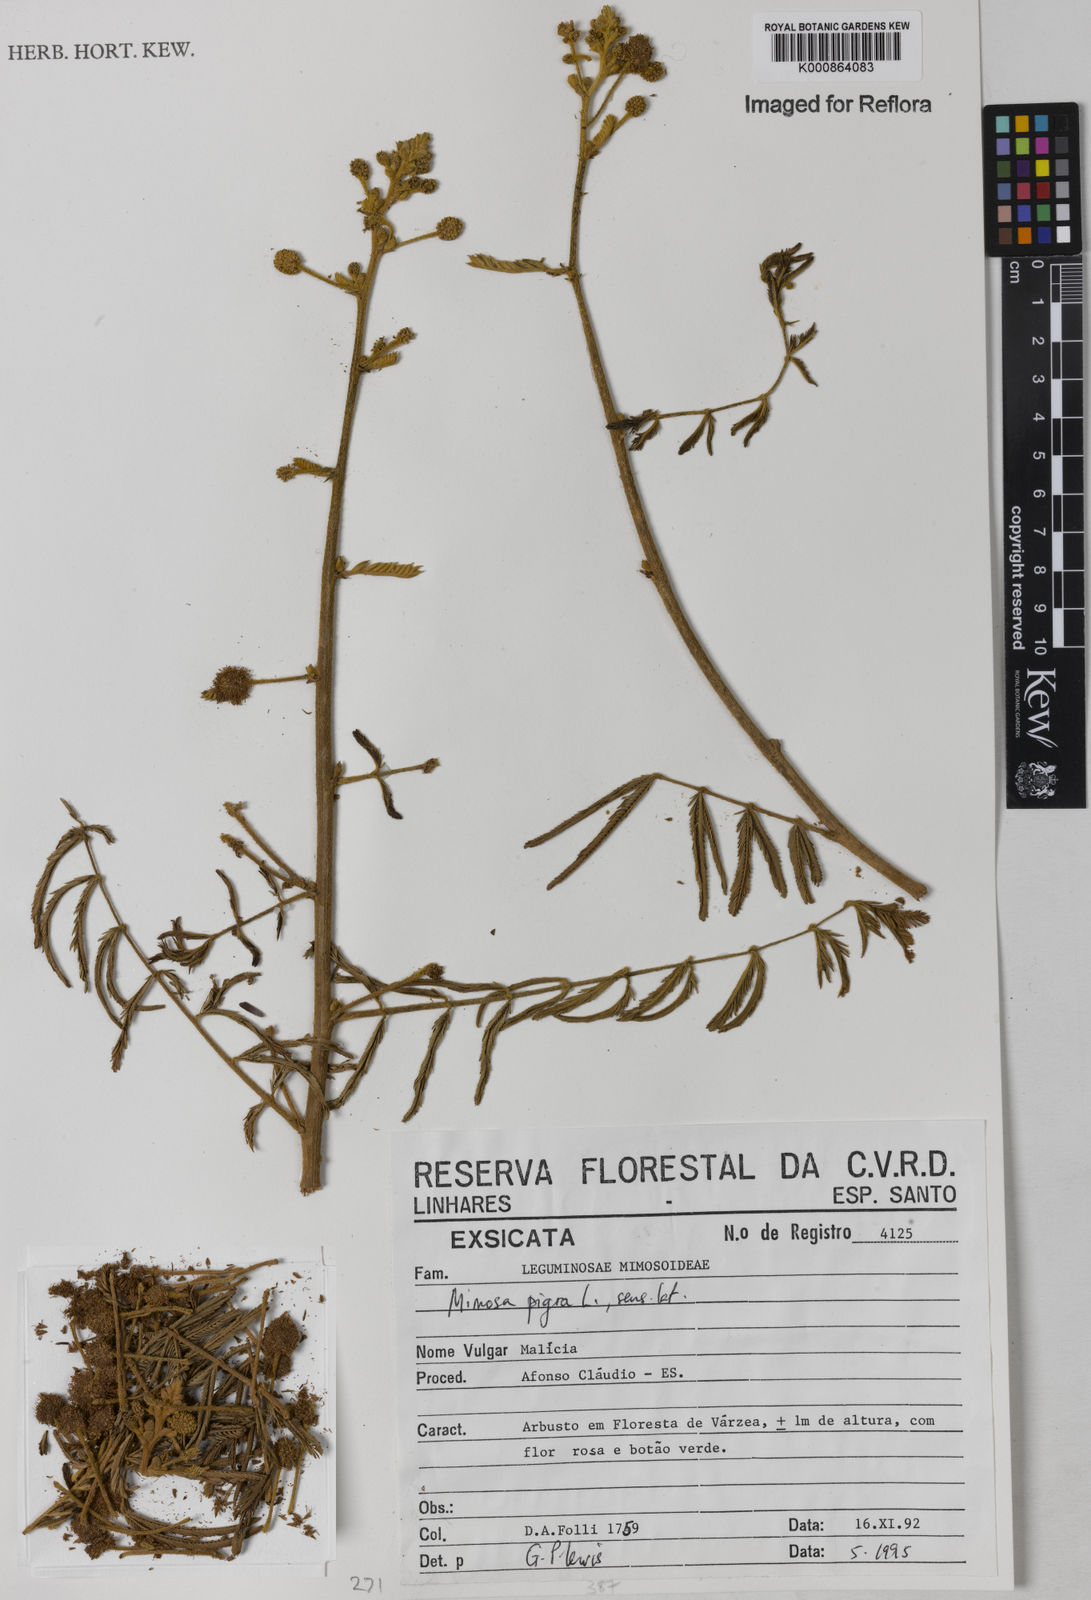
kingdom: Plantae
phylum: Tracheophyta
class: Magnoliopsida
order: Fabales
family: Fabaceae
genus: Mimosa
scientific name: Mimosa pigra
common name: Black mimosa
